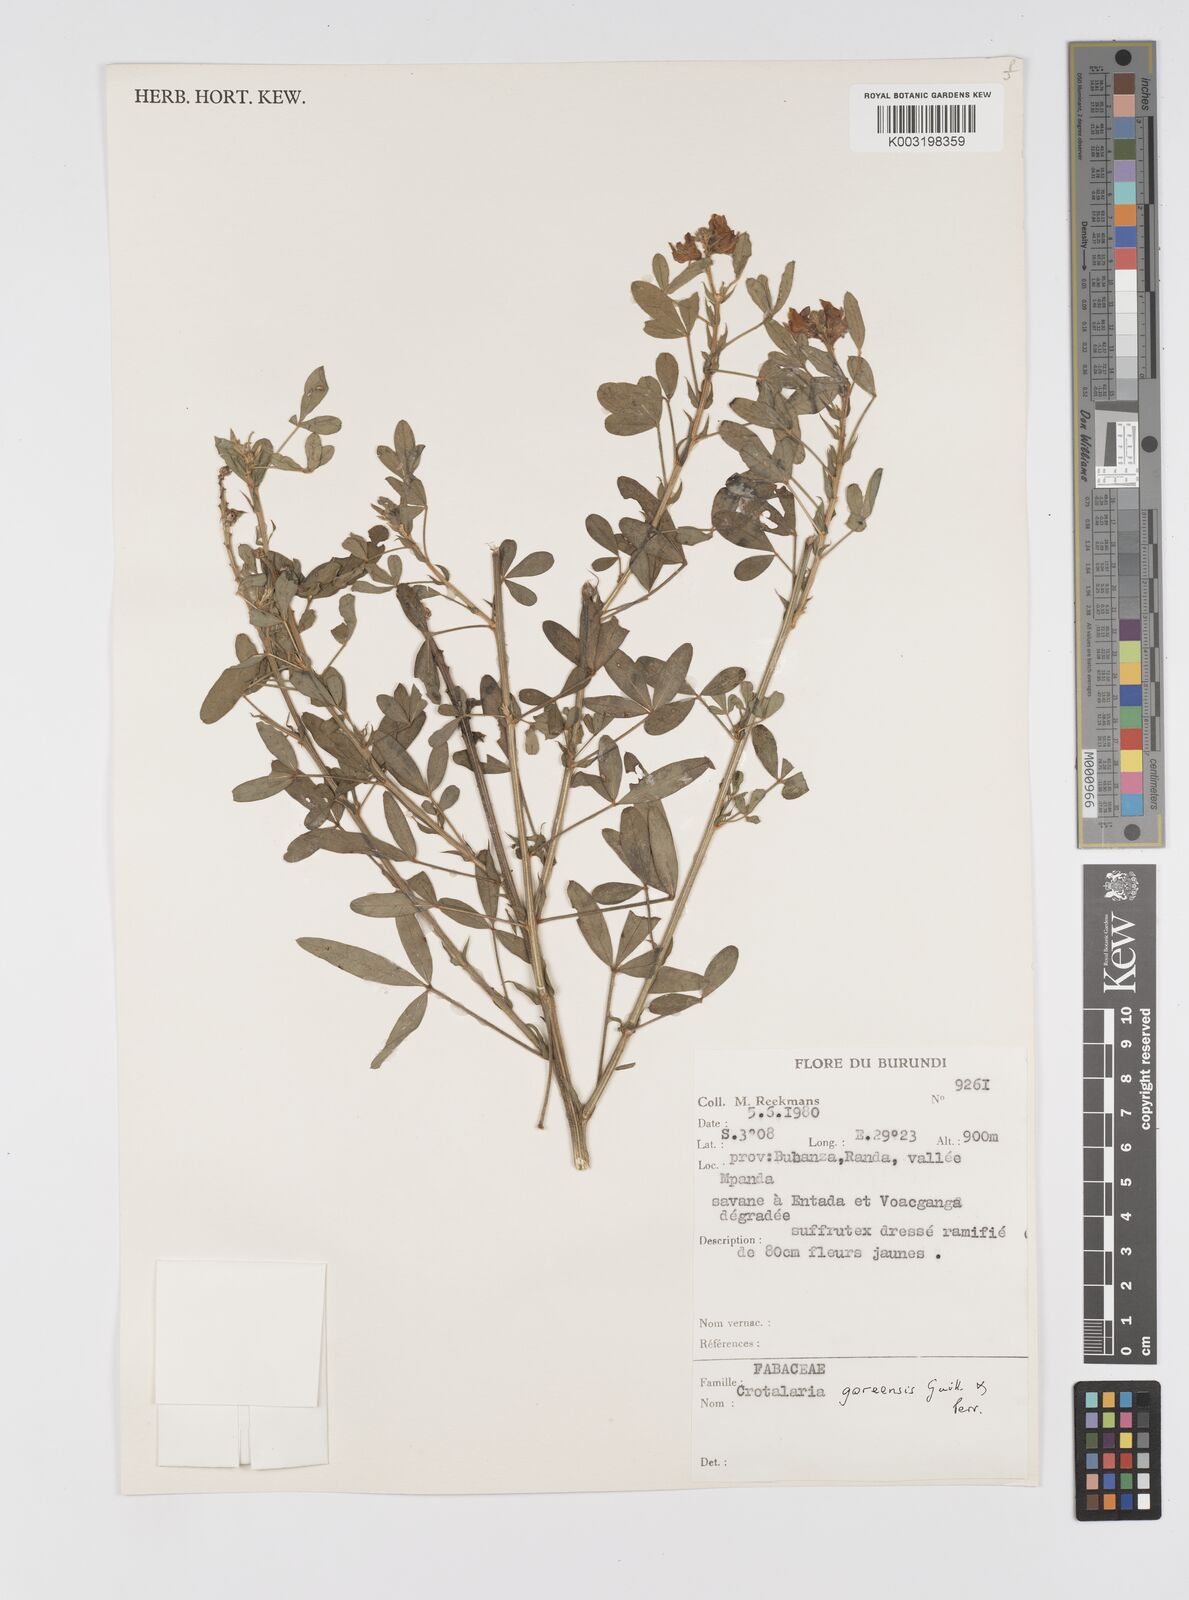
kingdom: Plantae
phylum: Tracheophyta
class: Magnoliopsida
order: Fabales
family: Fabaceae
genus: Crotalaria
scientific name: Crotalaria goreensis
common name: Gambia-pea
